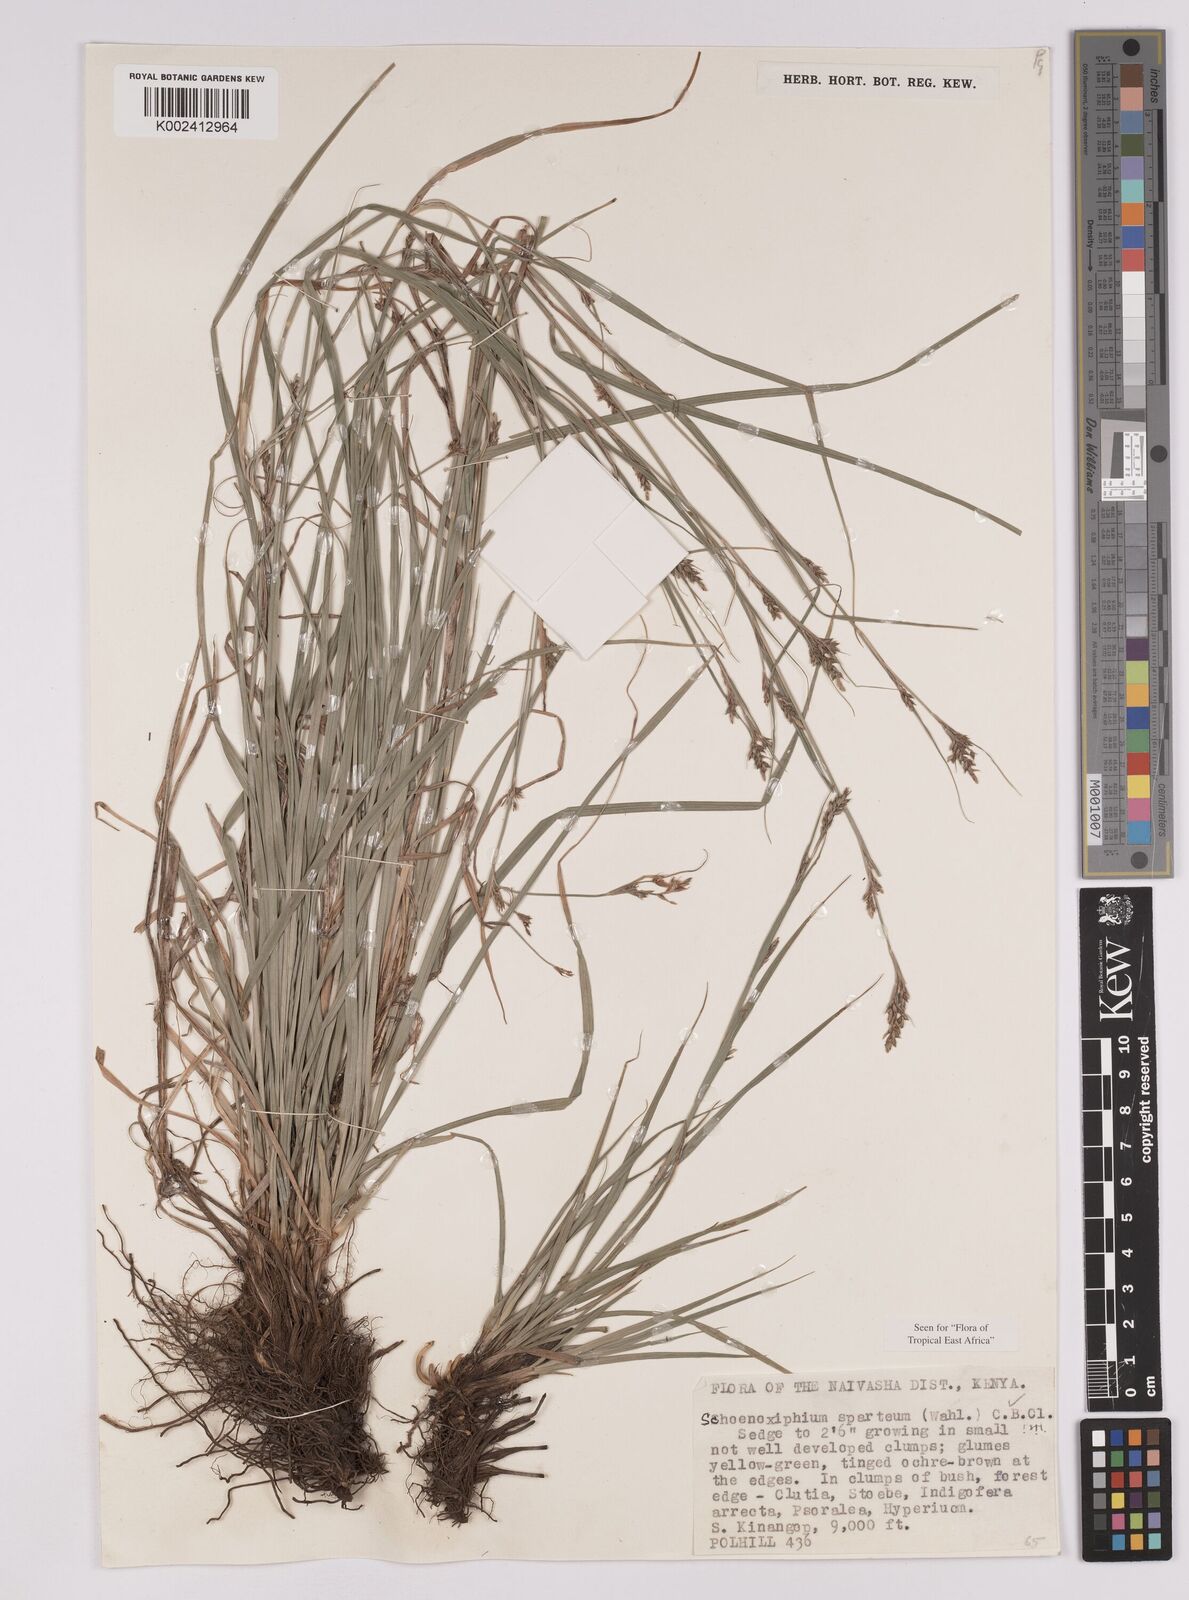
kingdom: Plantae
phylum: Tracheophyta
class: Liliopsida
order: Poales
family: Cyperaceae
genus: Carex
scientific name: Carex schimperiana
